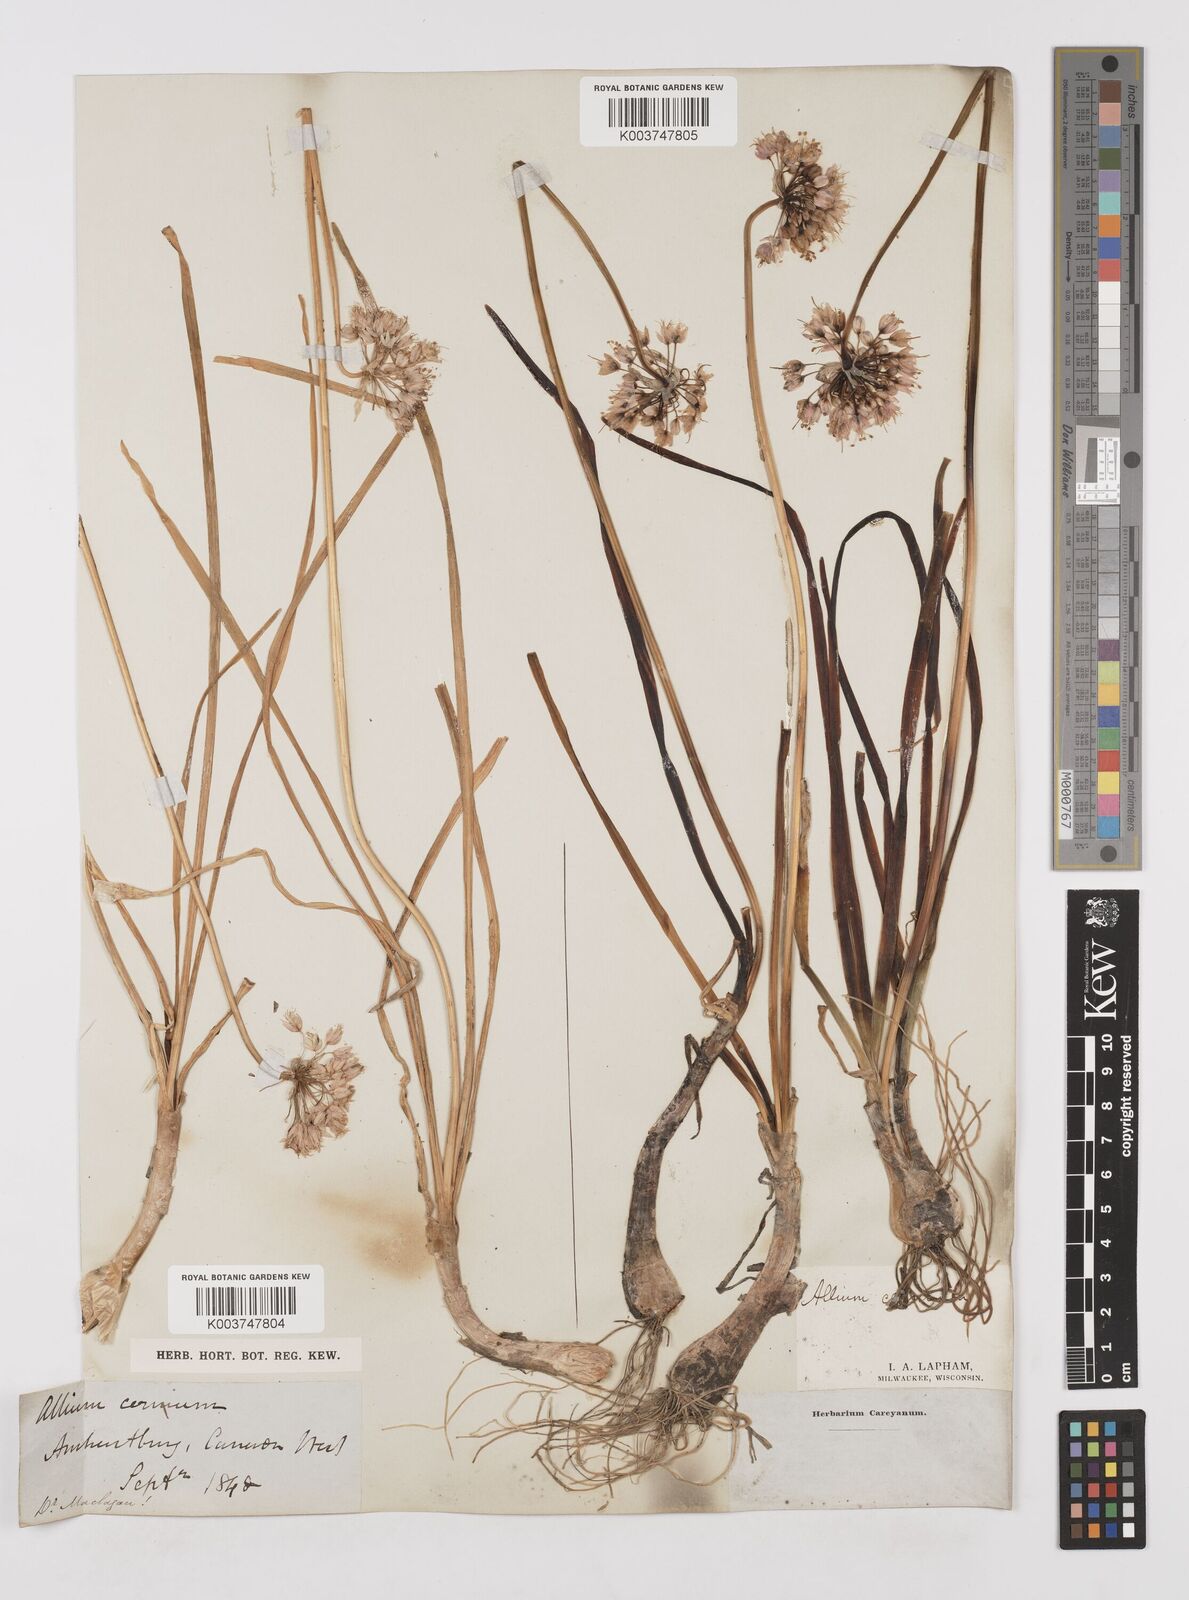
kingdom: Plantae
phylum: Tracheophyta
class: Liliopsida
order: Asparagales
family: Amaryllidaceae
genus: Allium
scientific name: Allium cernuum
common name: Nodding onion
